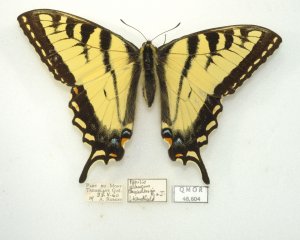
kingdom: Animalia
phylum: Arthropoda
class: Insecta
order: Lepidoptera
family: Papilionidae
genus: Pterourus
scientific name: Pterourus canadensis
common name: Canadian Tiger Swallowtail
